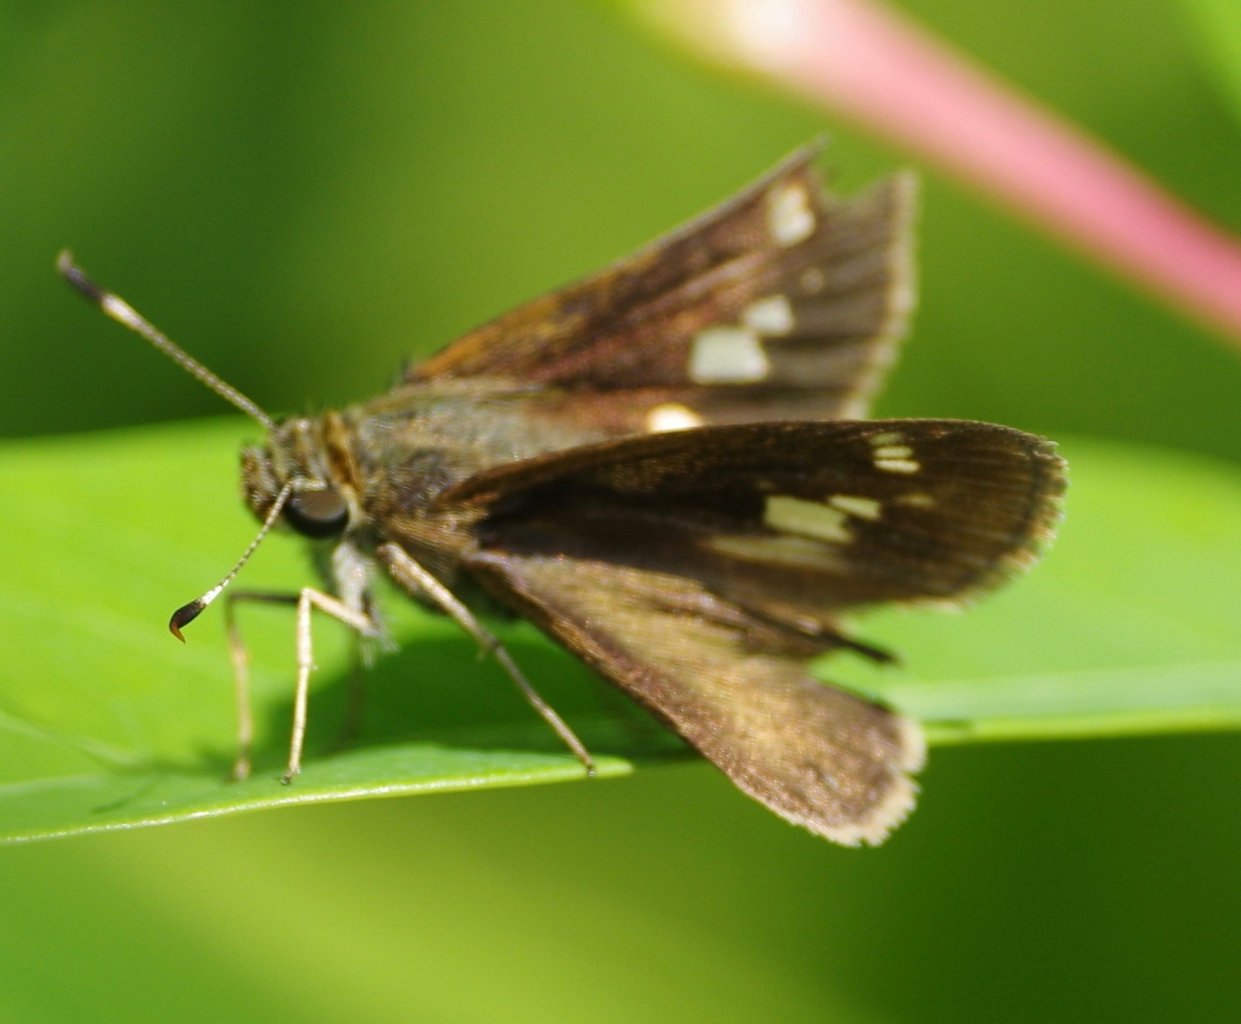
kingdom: Animalia
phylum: Arthropoda
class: Insecta
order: Lepidoptera
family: Hesperiidae
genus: Vernia
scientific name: Vernia verna
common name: Little Glassywing
